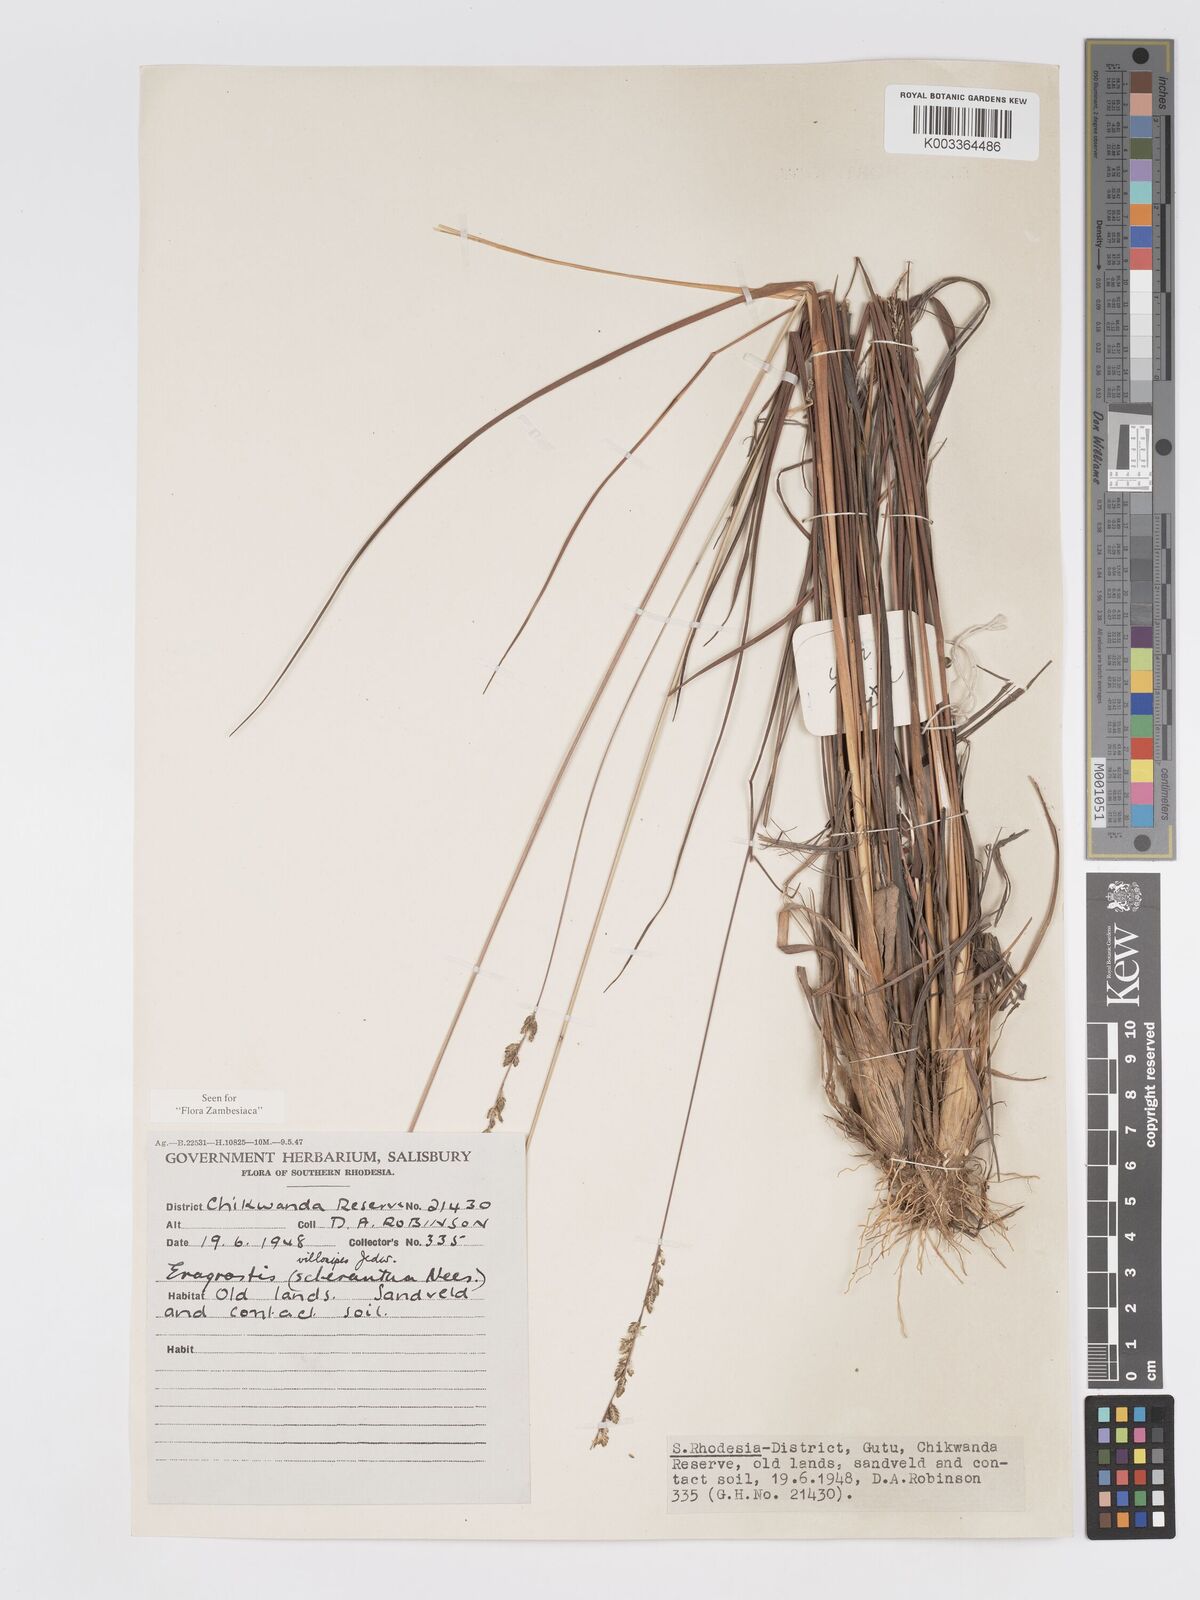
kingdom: Plantae
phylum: Tracheophyta
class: Liliopsida
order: Poales
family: Poaceae
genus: Eragrostis
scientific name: Eragrostis sclerantha
